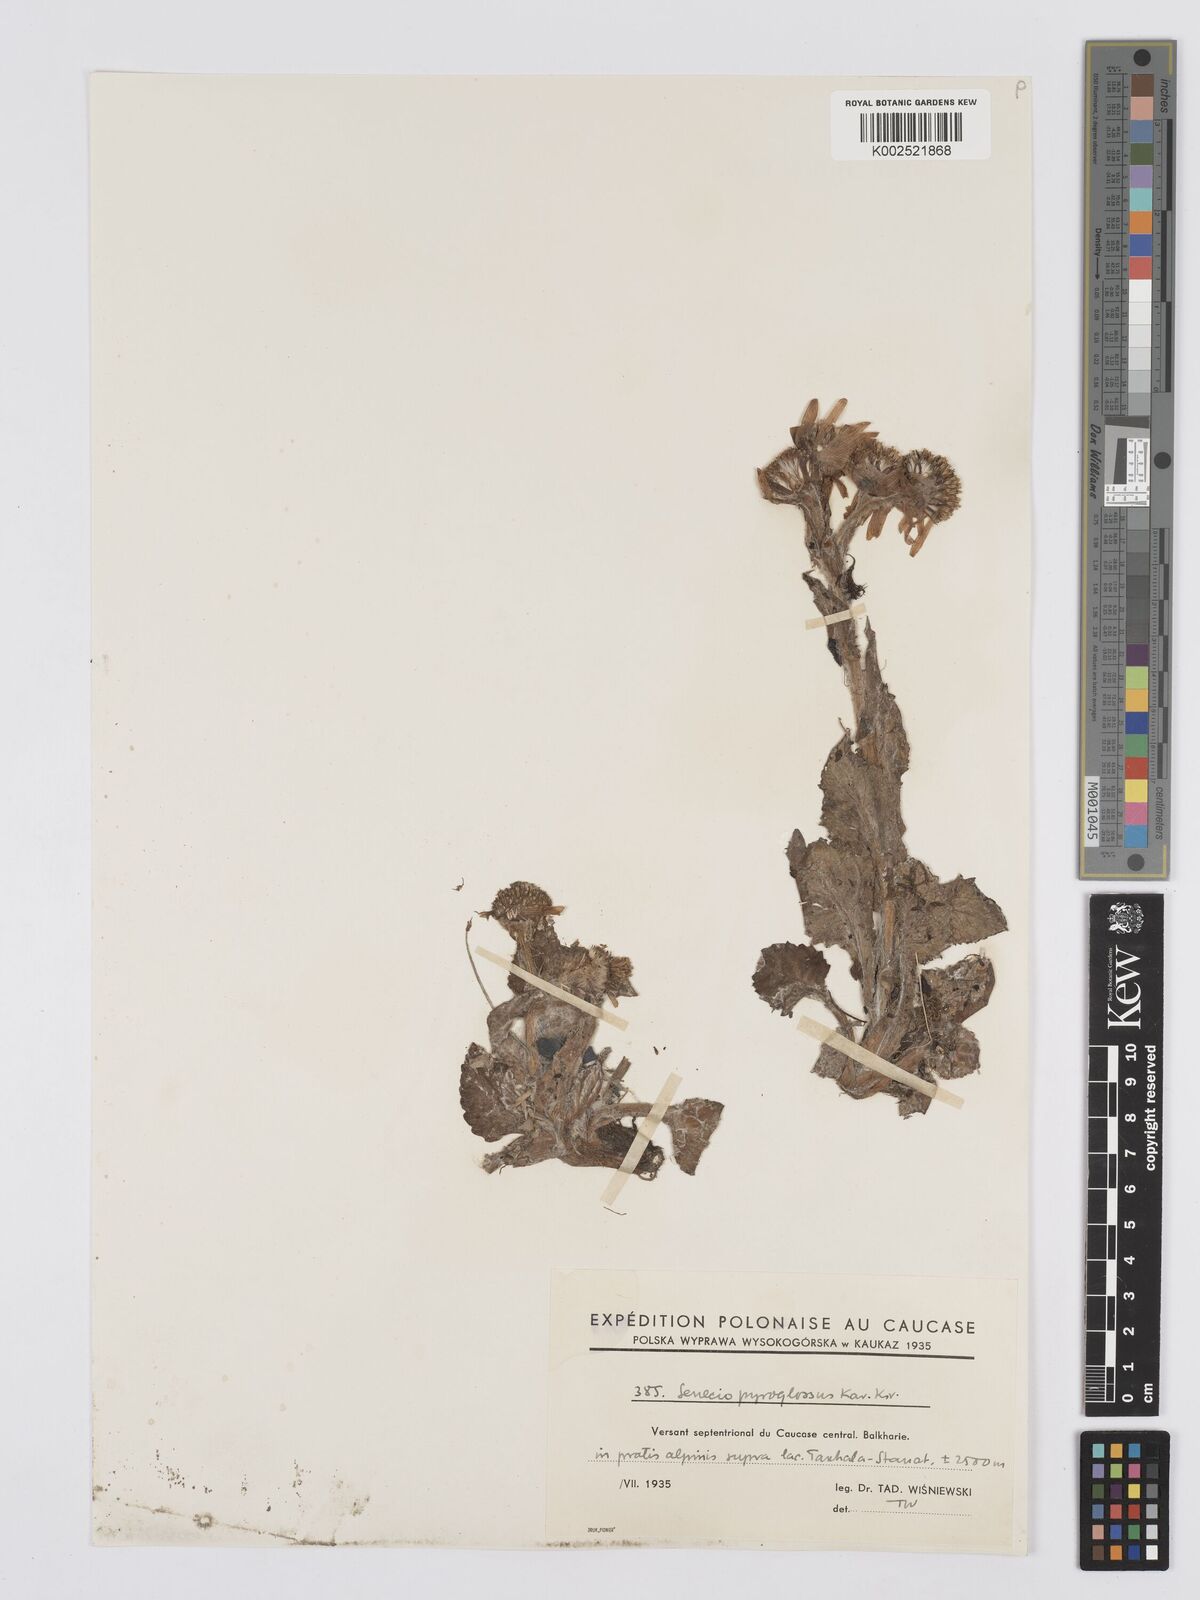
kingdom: Plantae
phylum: Tracheophyta
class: Magnoliopsida
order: Asterales
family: Asteraceae
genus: Tephroseris
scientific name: Tephroseris integrifolia
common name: Field fleawort
